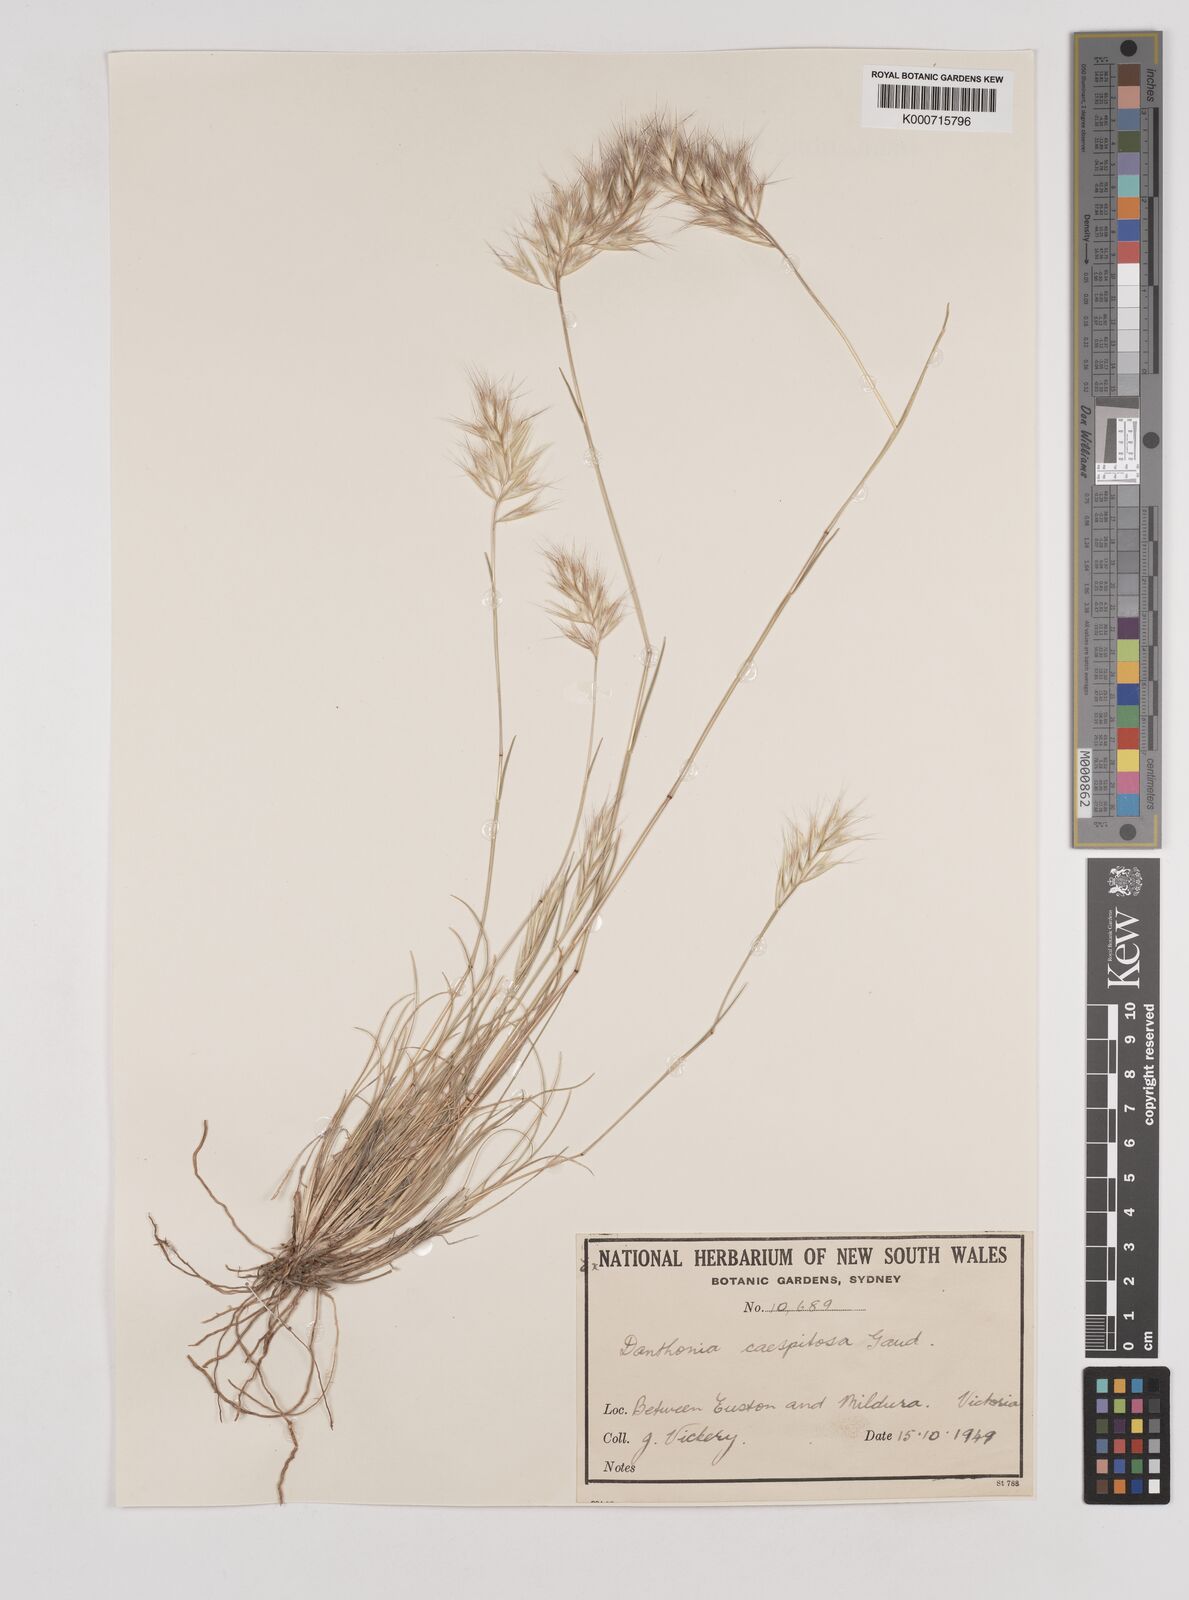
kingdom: Plantae
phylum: Tracheophyta
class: Liliopsida
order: Poales
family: Poaceae
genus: Rytidosperma
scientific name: Rytidosperma caespitosum
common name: Tufted wallaby grass
